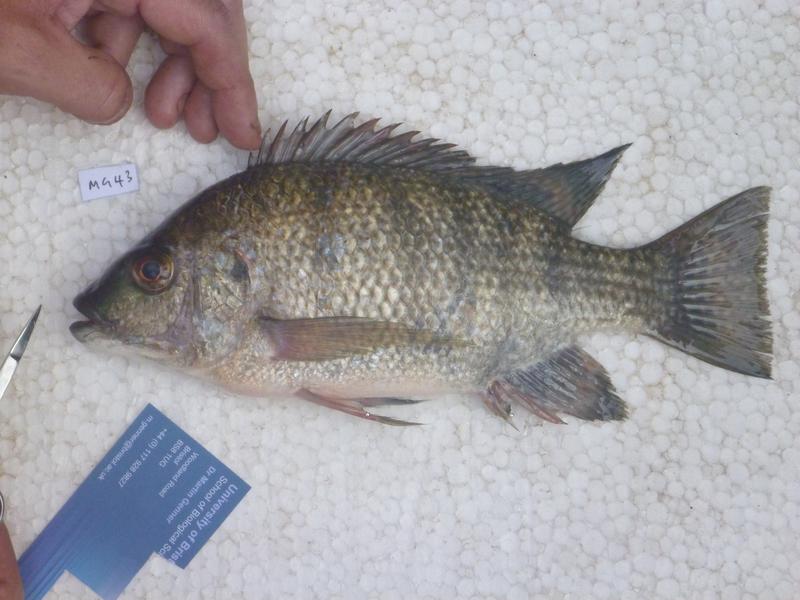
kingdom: Animalia
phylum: Chordata
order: Perciformes
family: Cichlidae
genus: Oreochromis
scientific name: Oreochromis tanganicae
